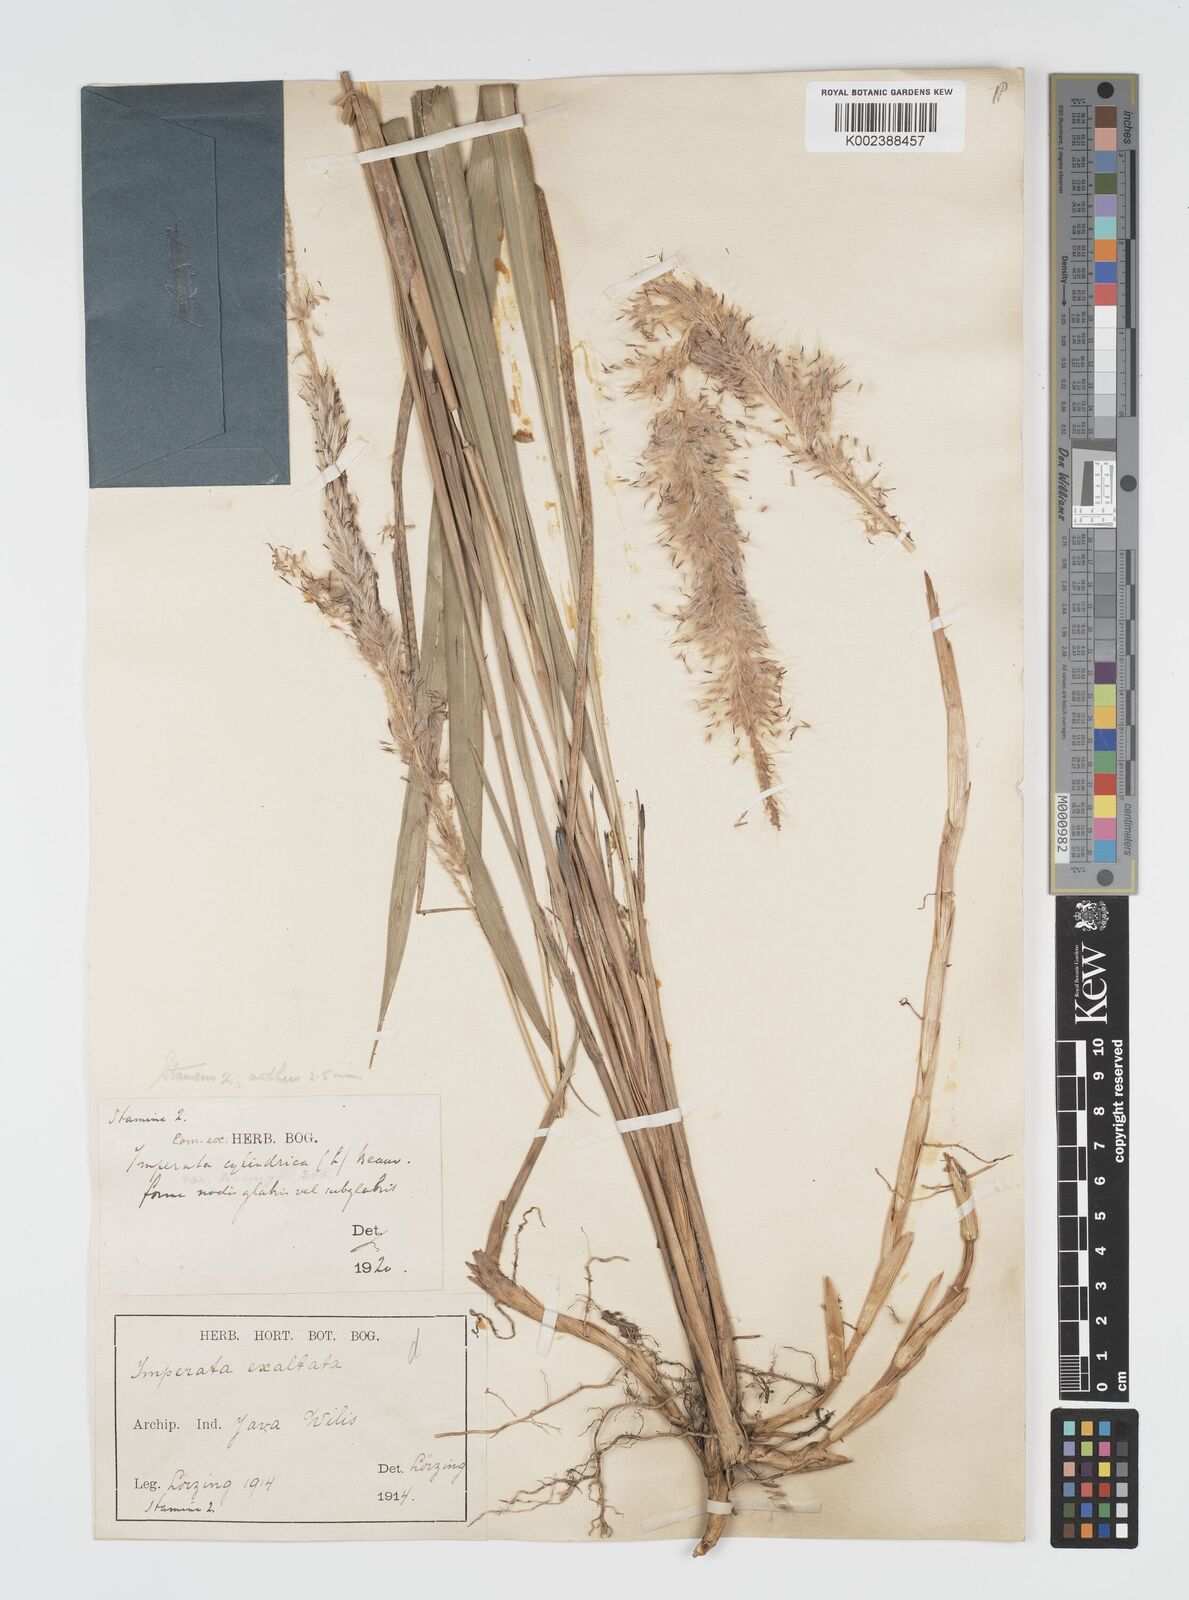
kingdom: Plantae
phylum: Tracheophyta
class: Liliopsida
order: Poales
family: Poaceae
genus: Imperata
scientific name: Imperata
